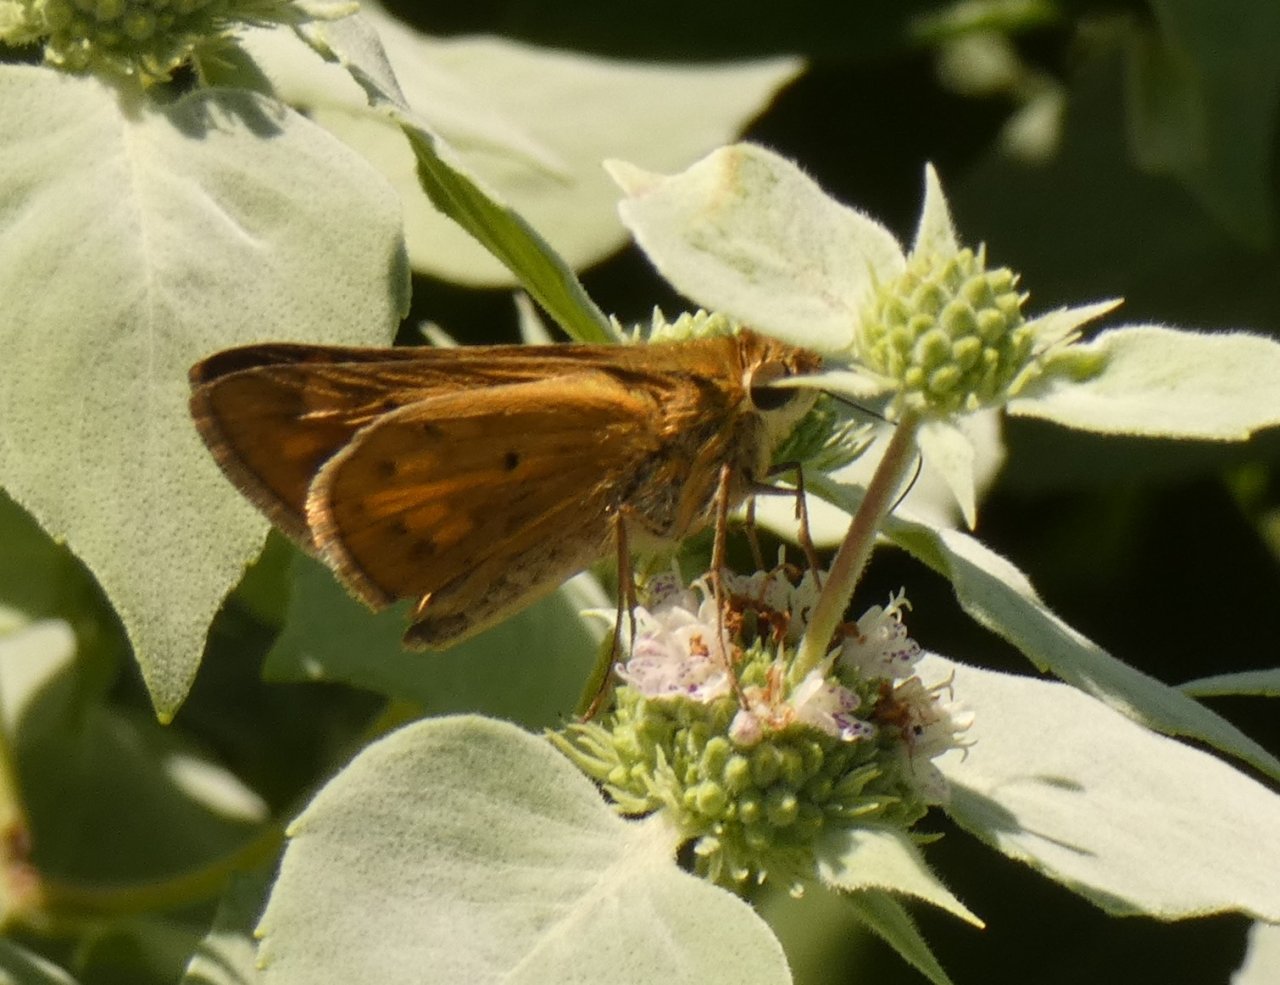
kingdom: Animalia
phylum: Arthropoda
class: Insecta
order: Lepidoptera
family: Hesperiidae
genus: Hylephila
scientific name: Hylephila phyleus
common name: Fiery Skipper
